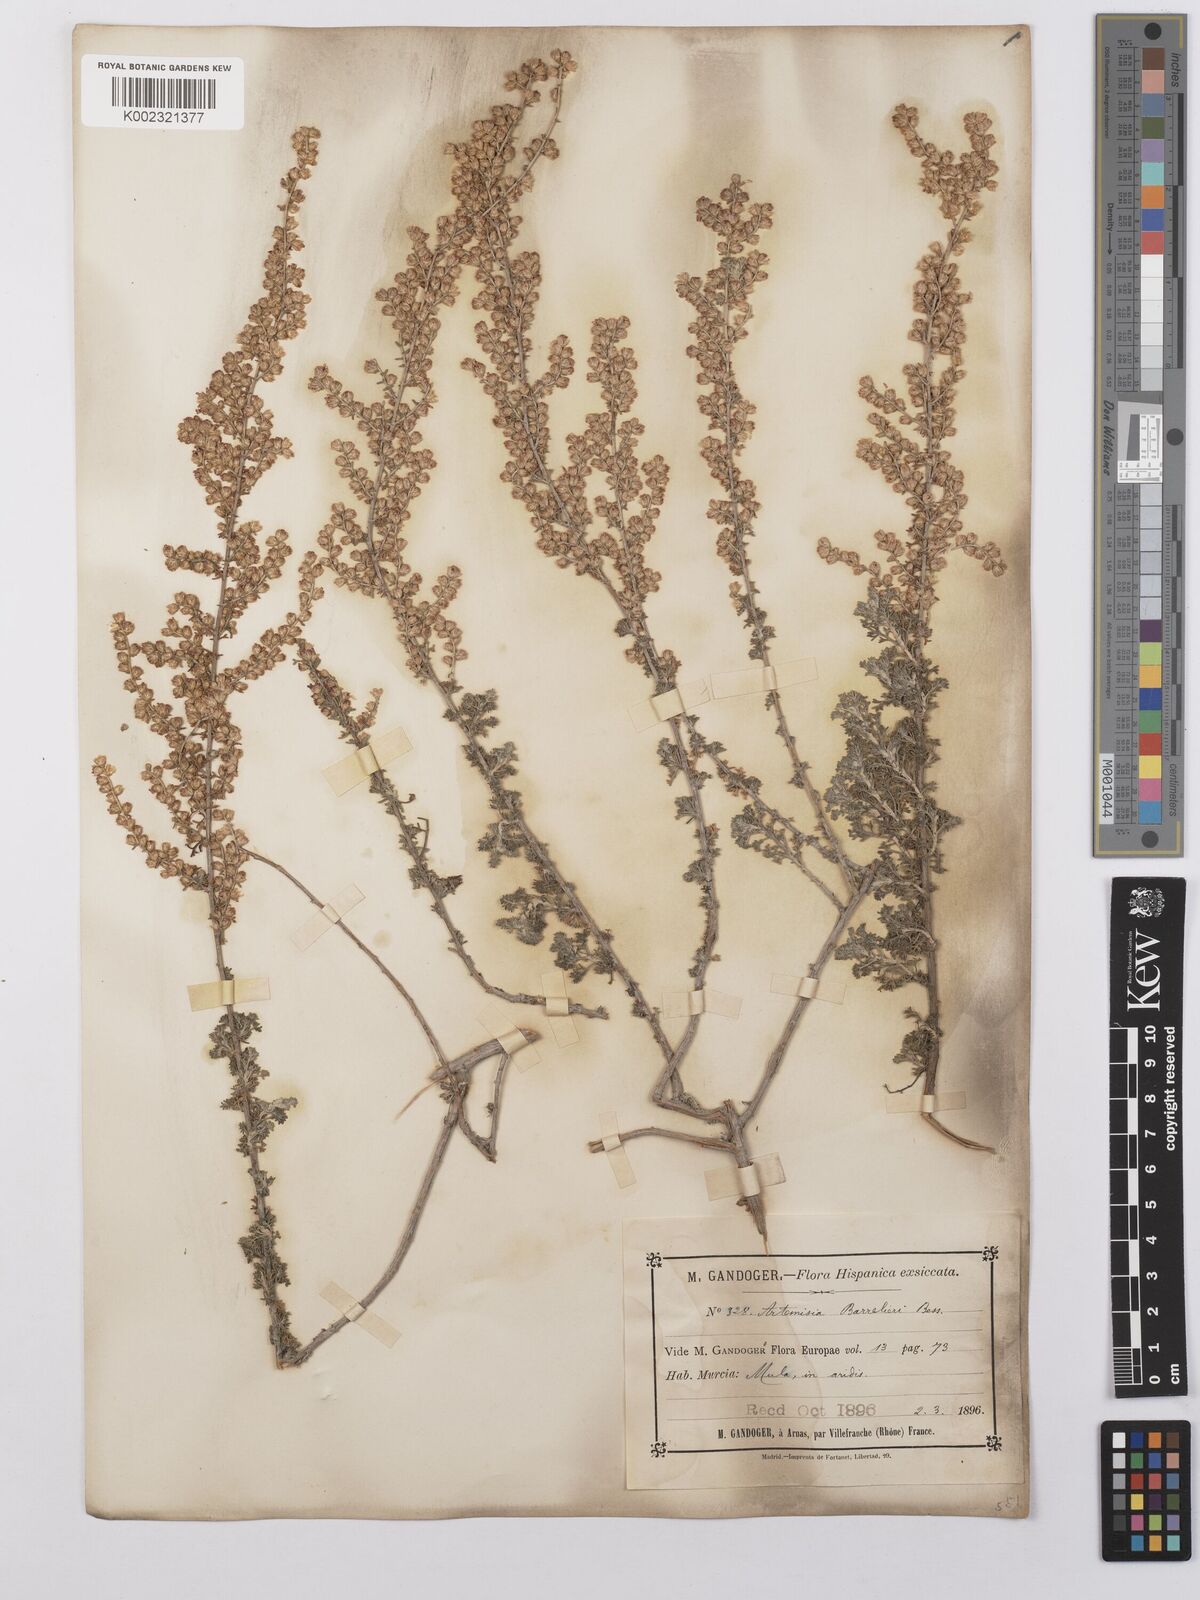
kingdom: Plantae
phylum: Tracheophyta
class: Magnoliopsida
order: Asterales
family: Asteraceae
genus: Artemisia
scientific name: Artemisia barrelieri
